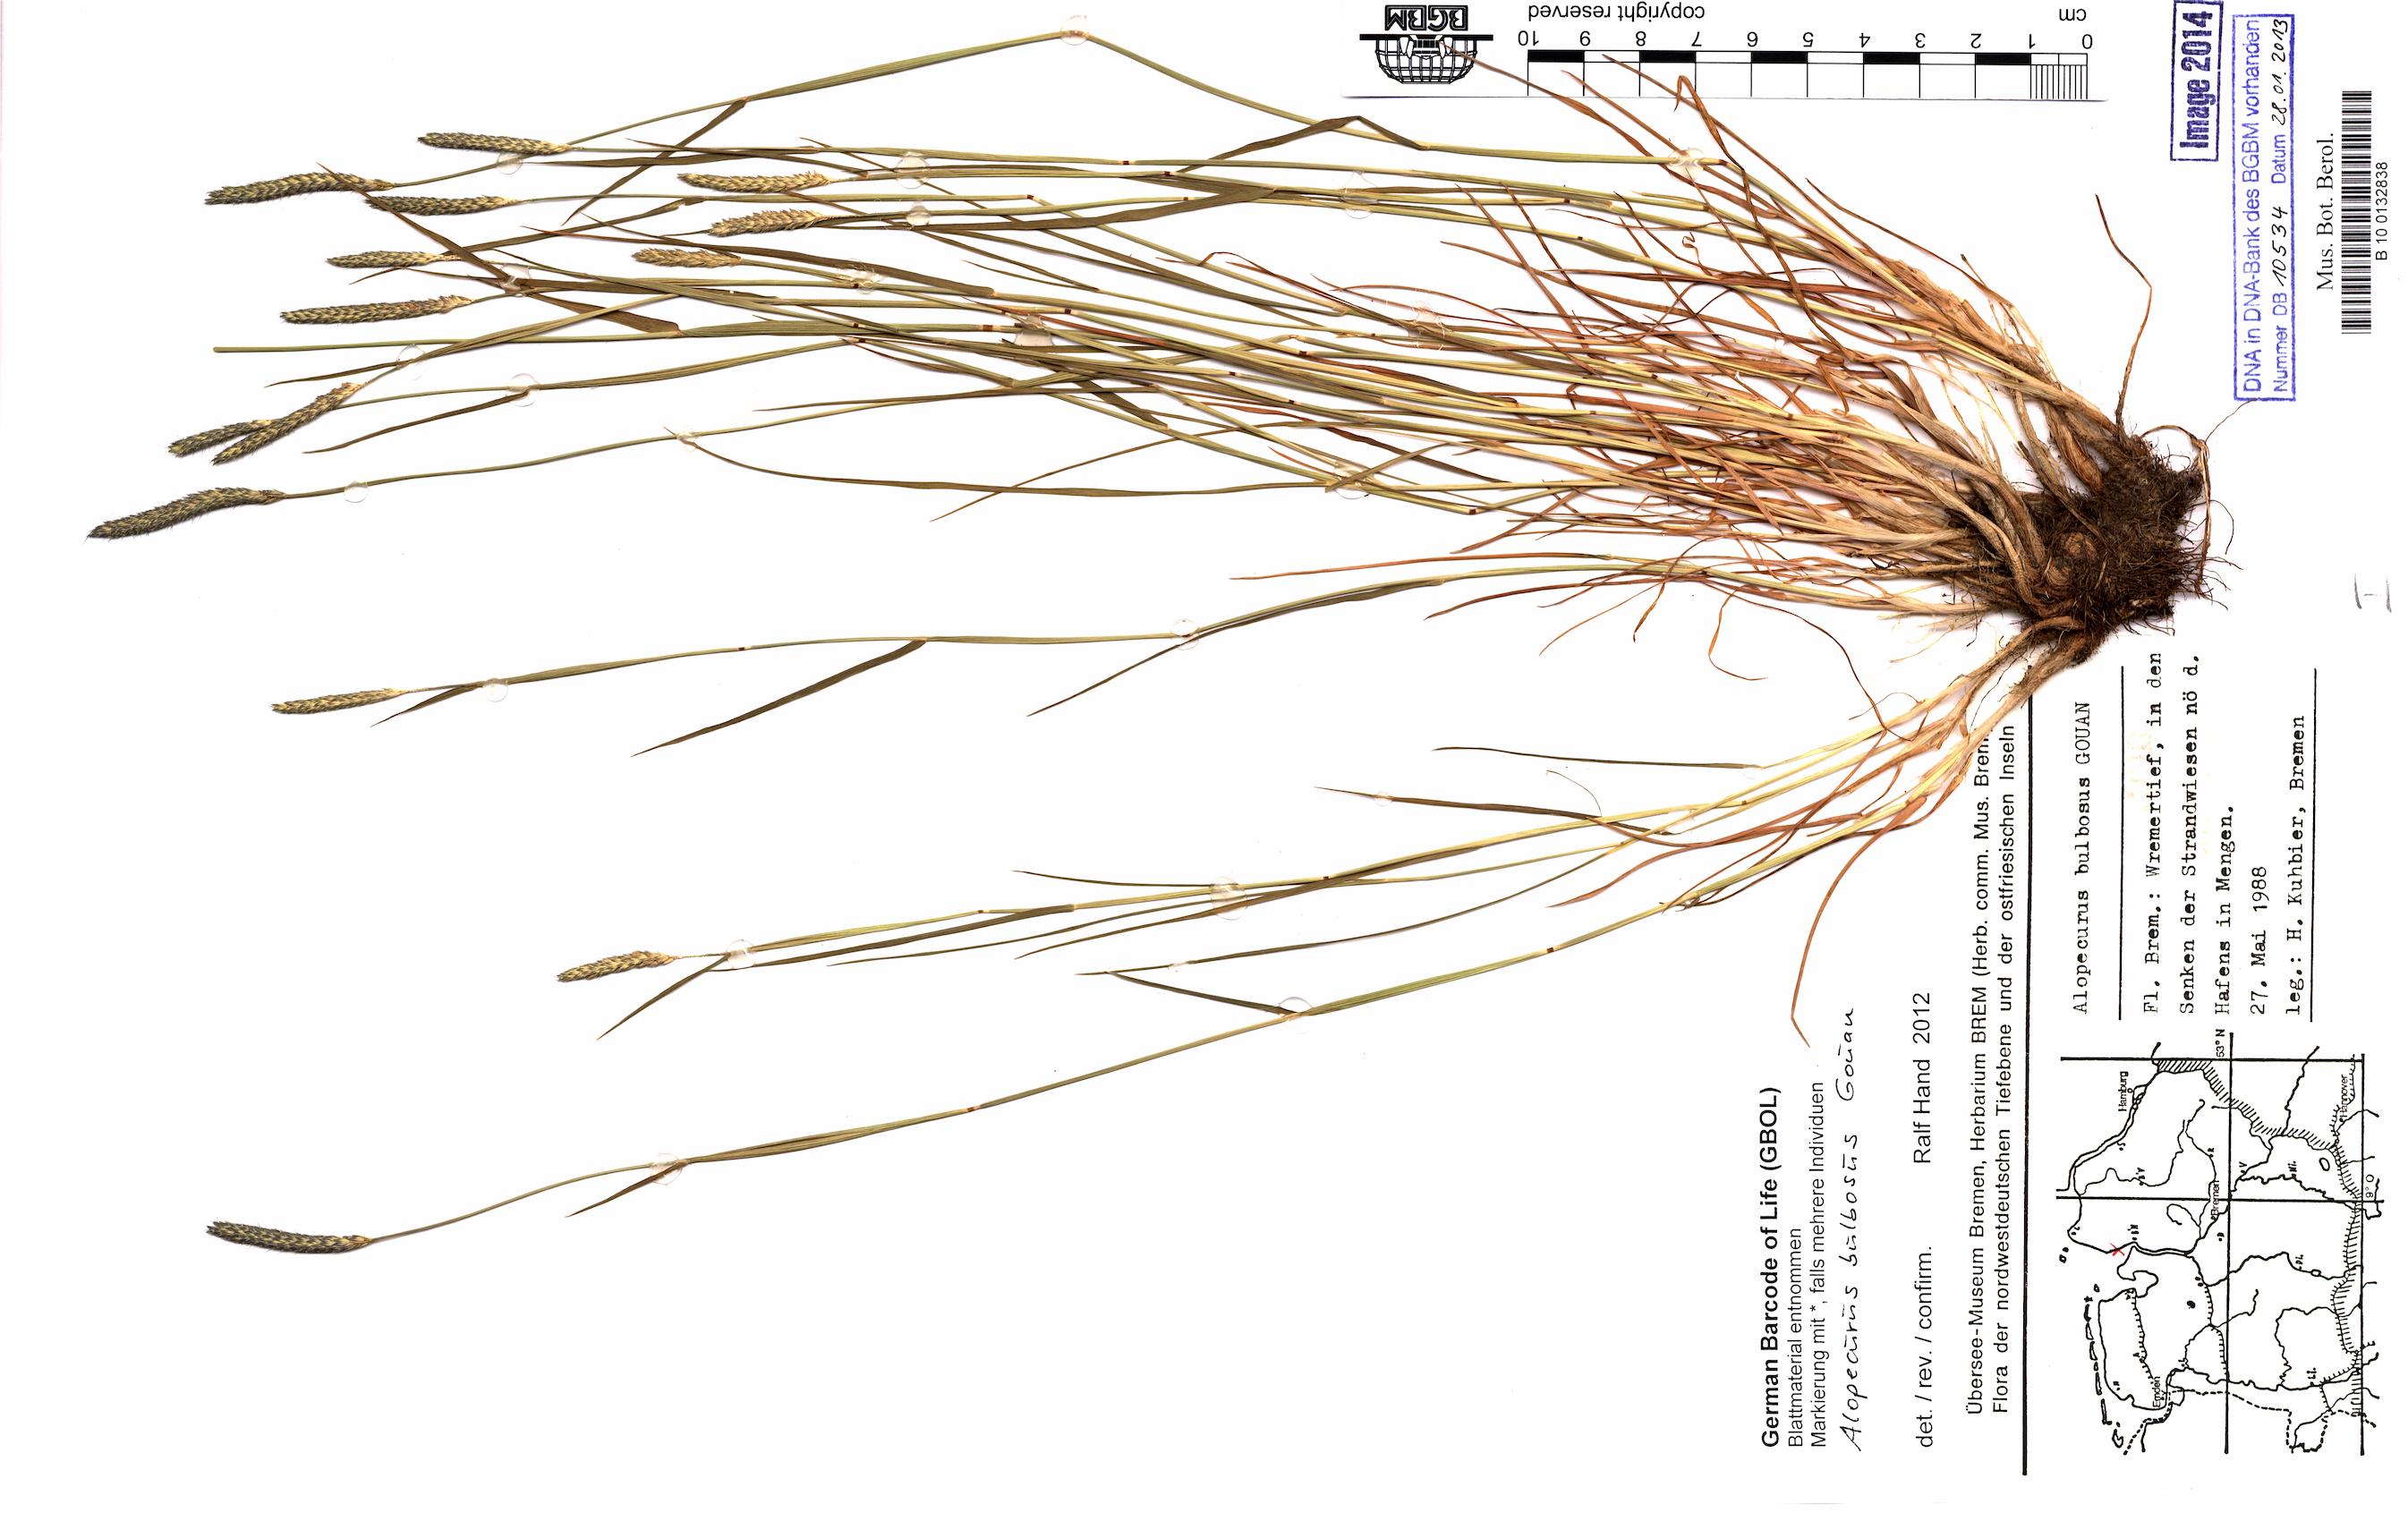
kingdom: Plantae
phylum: Tracheophyta
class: Liliopsida
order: Poales
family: Poaceae
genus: Alopecurus
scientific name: Alopecurus bulbosus
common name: Bulbous foxtail
